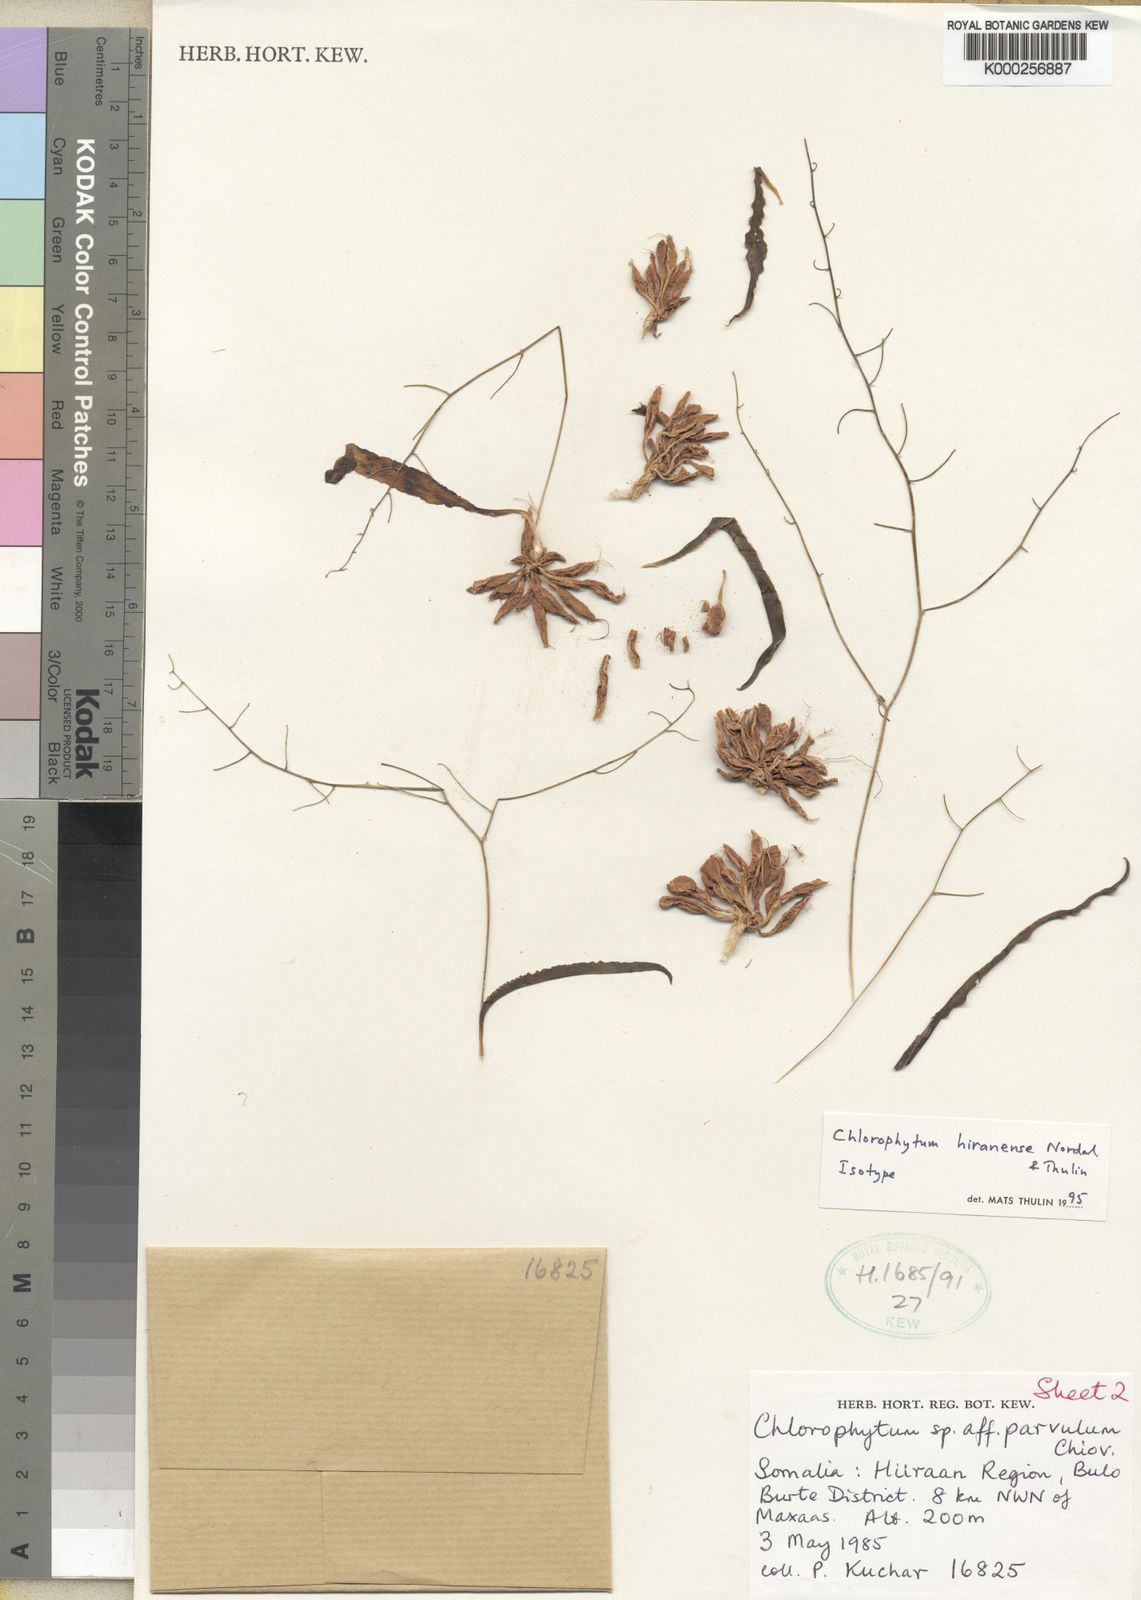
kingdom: Plantae
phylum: Tracheophyta
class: Liliopsida
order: Asparagales
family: Asparagaceae
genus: Chlorophytum
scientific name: Chlorophytum hiranense
